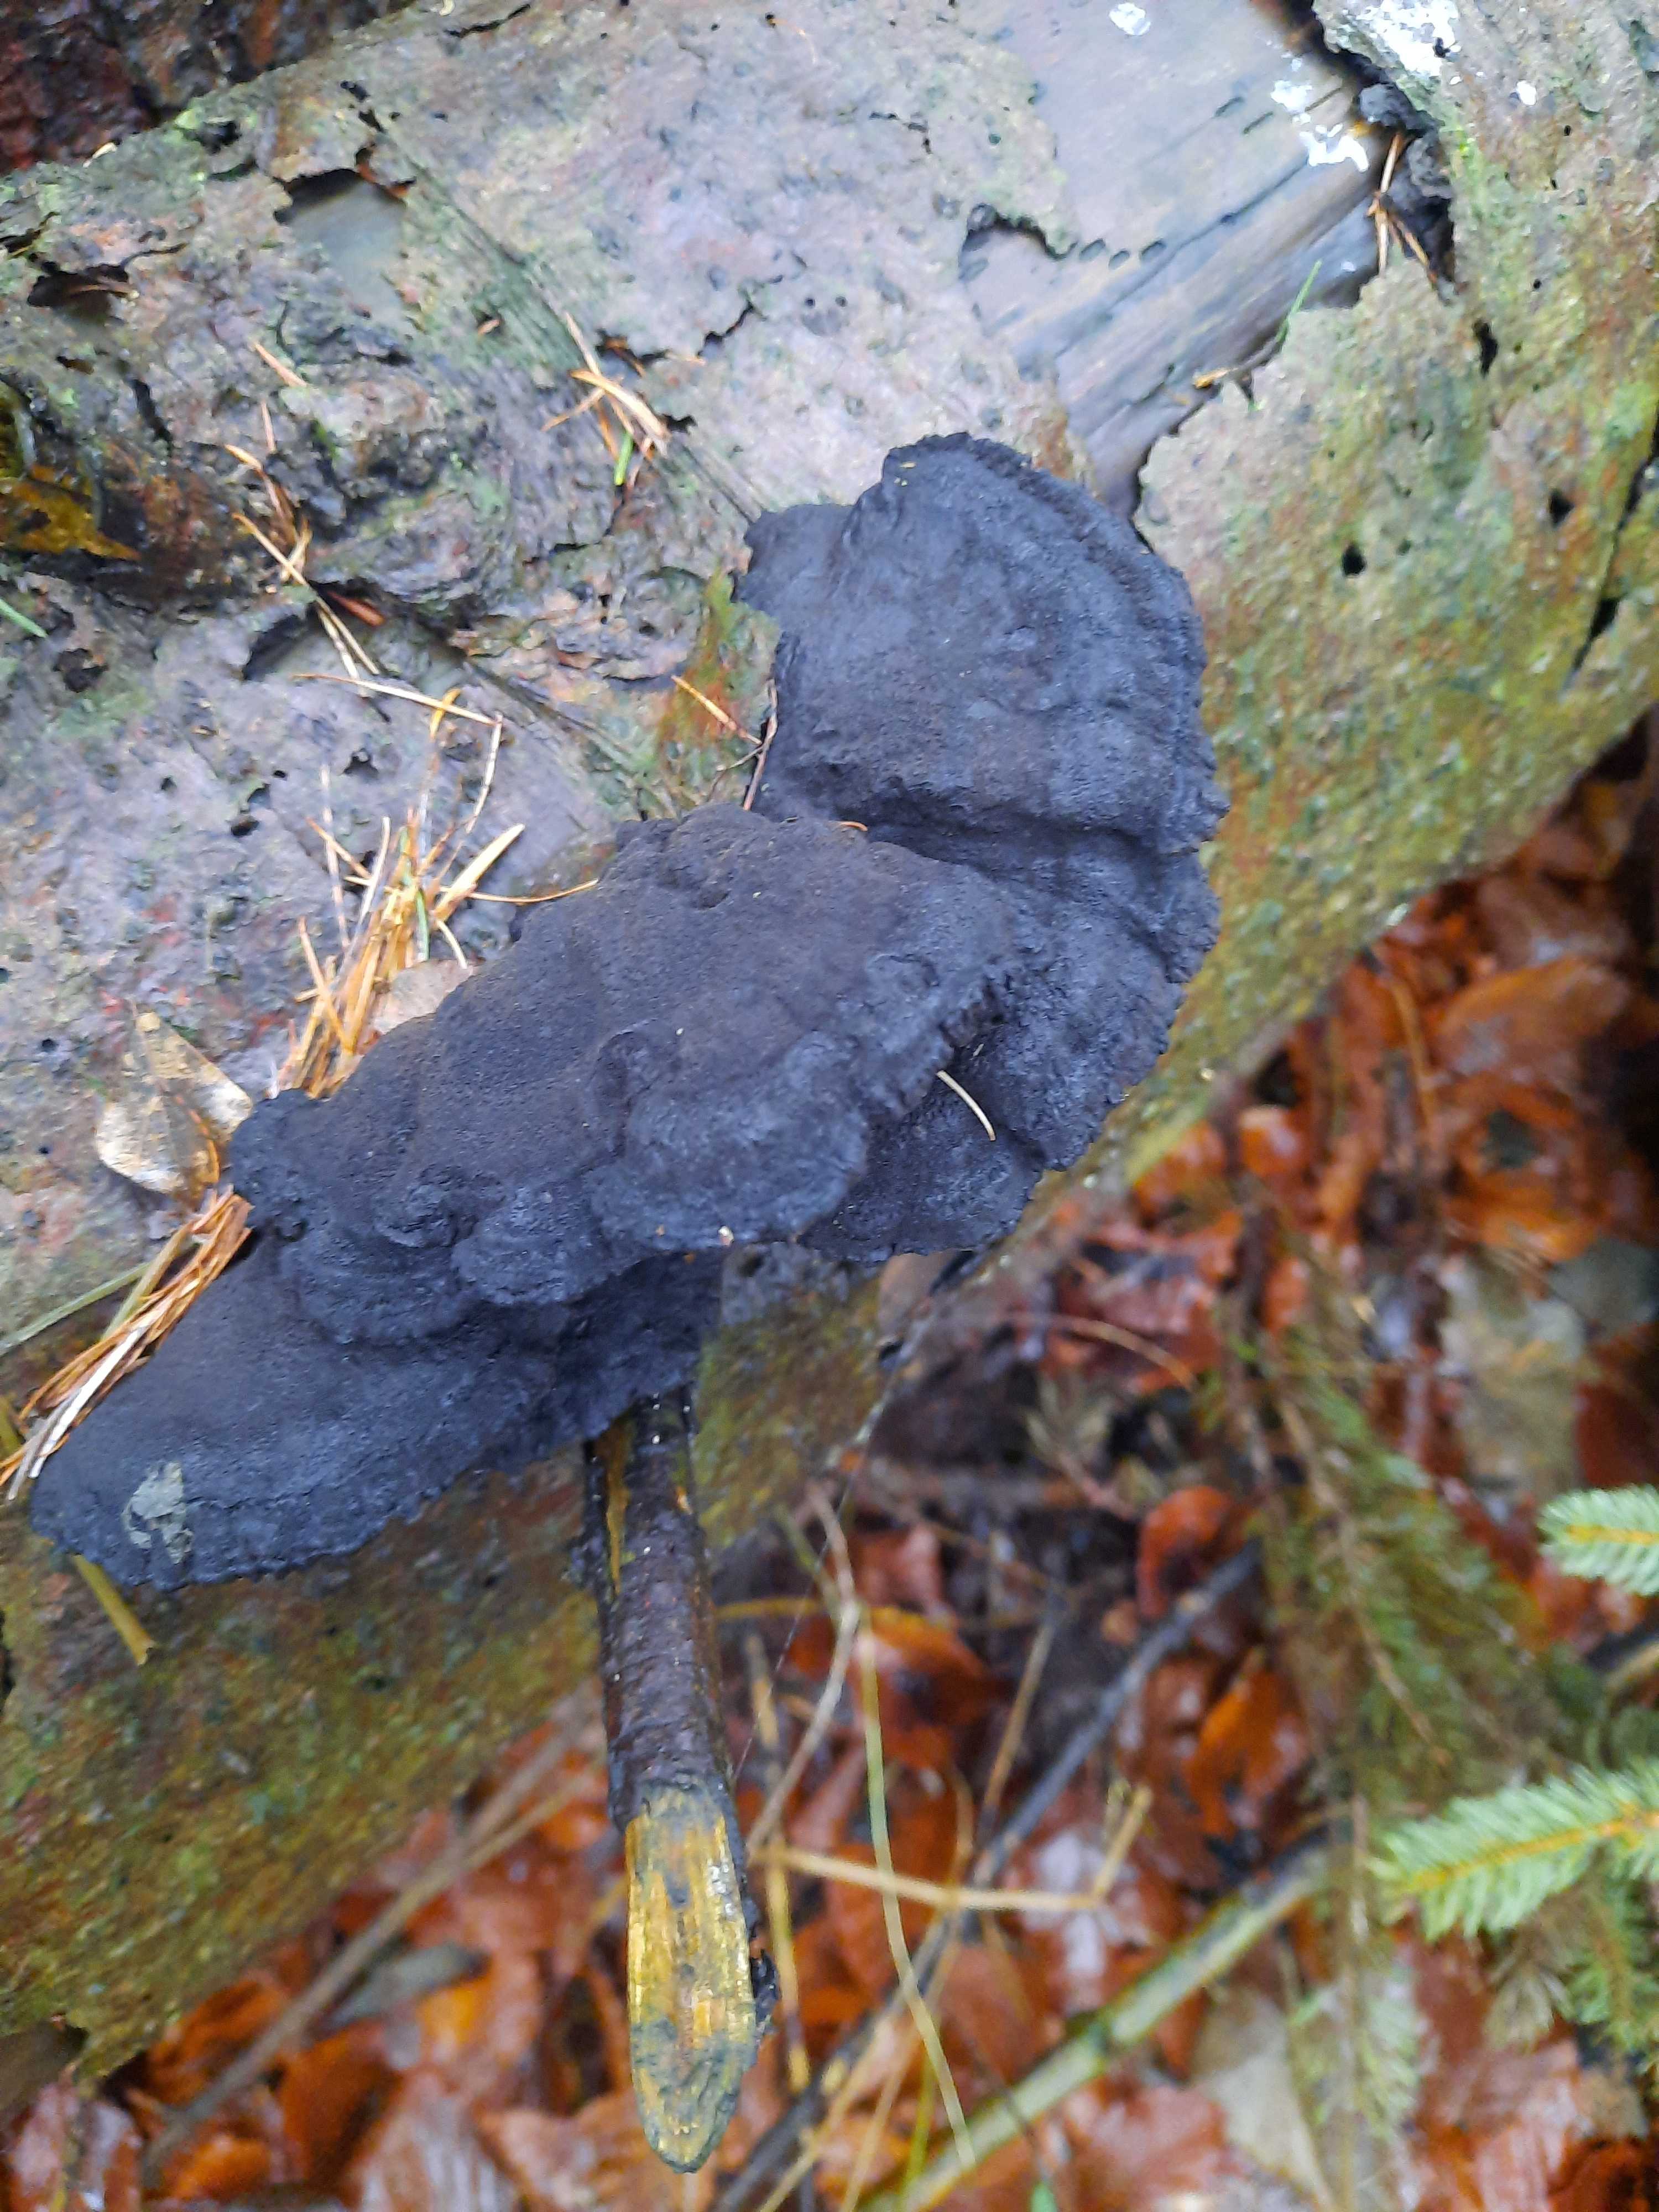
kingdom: Fungi
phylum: Basidiomycota
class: Agaricomycetes
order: Polyporales
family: Ischnodermataceae
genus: Ischnoderma
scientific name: Ischnoderma benzoinum
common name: gran-tjæreporesvamp
